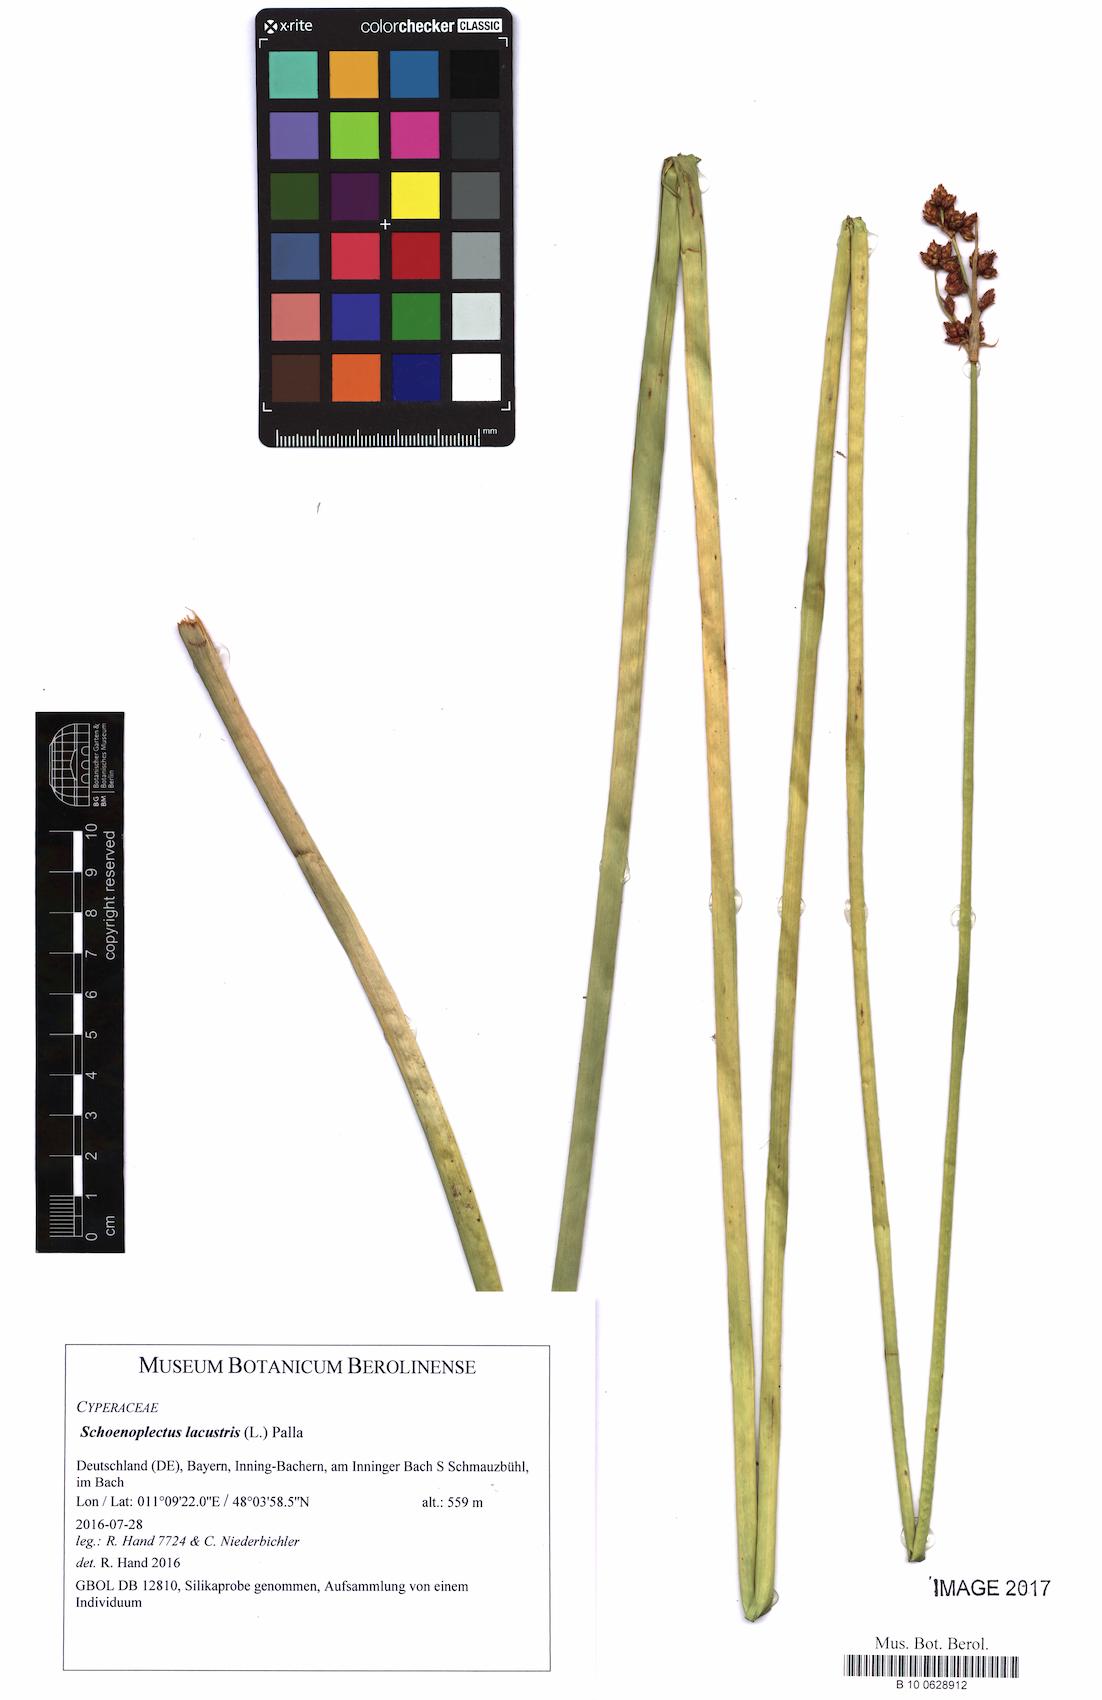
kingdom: Plantae
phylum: Tracheophyta
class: Liliopsida
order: Poales
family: Cyperaceae
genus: Schoenoplectus
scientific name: Schoenoplectus lacustris
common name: Common club-rush
